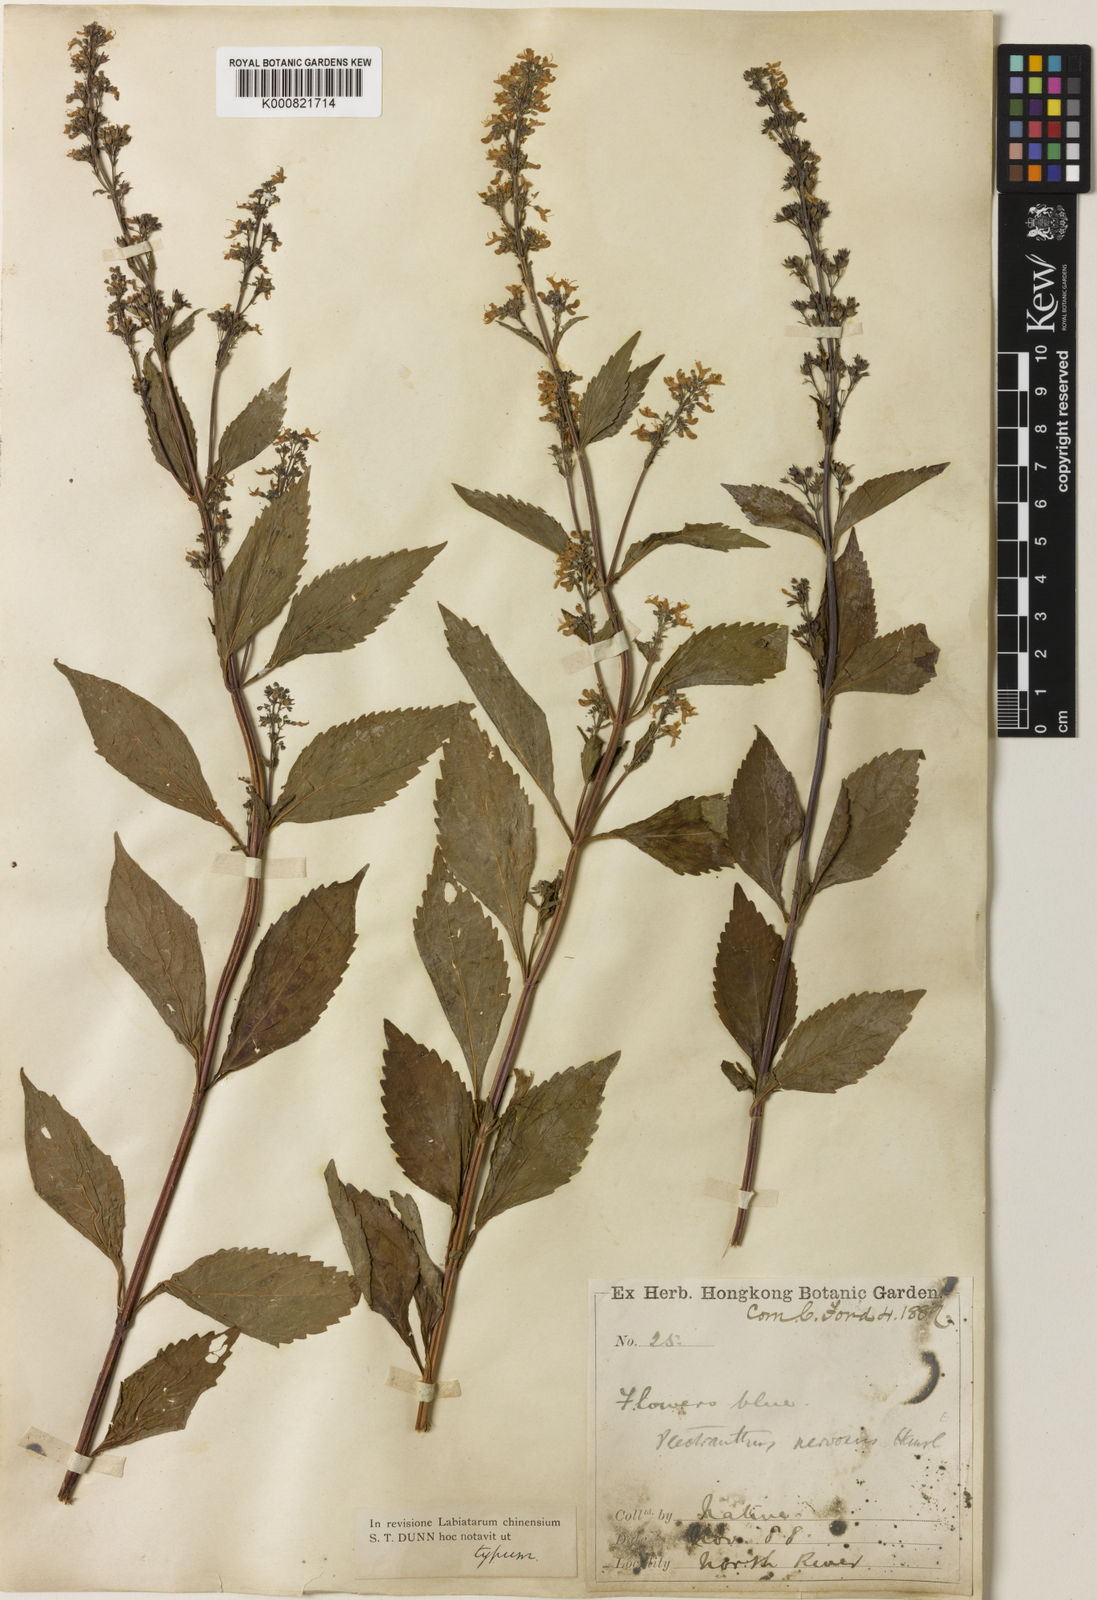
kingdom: Plantae
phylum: Tracheophyta
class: Magnoliopsida
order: Lamiales
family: Lamiaceae
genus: Isodon
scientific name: Isodon
